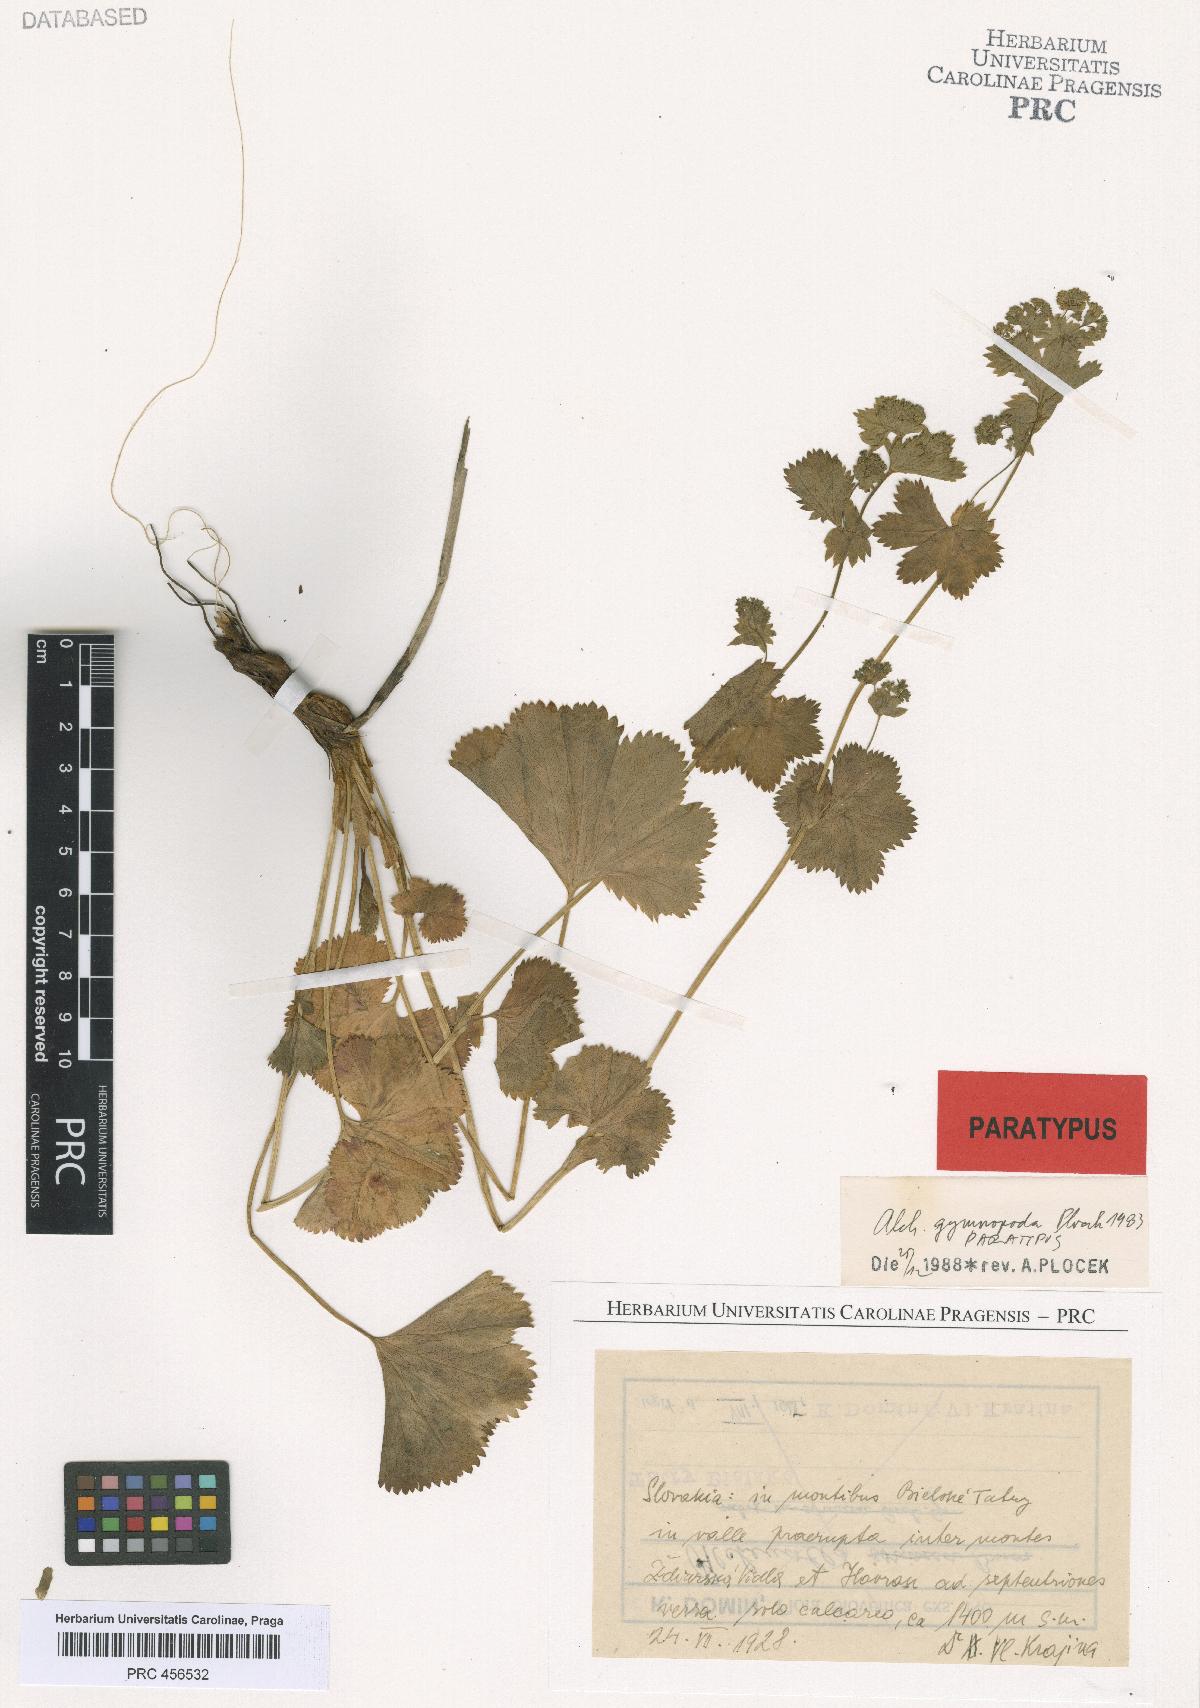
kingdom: Plantae
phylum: Tracheophyta
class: Magnoliopsida
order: Rosales
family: Rosaceae
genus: Alchemilla
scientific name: Alchemilla gymnopoda
